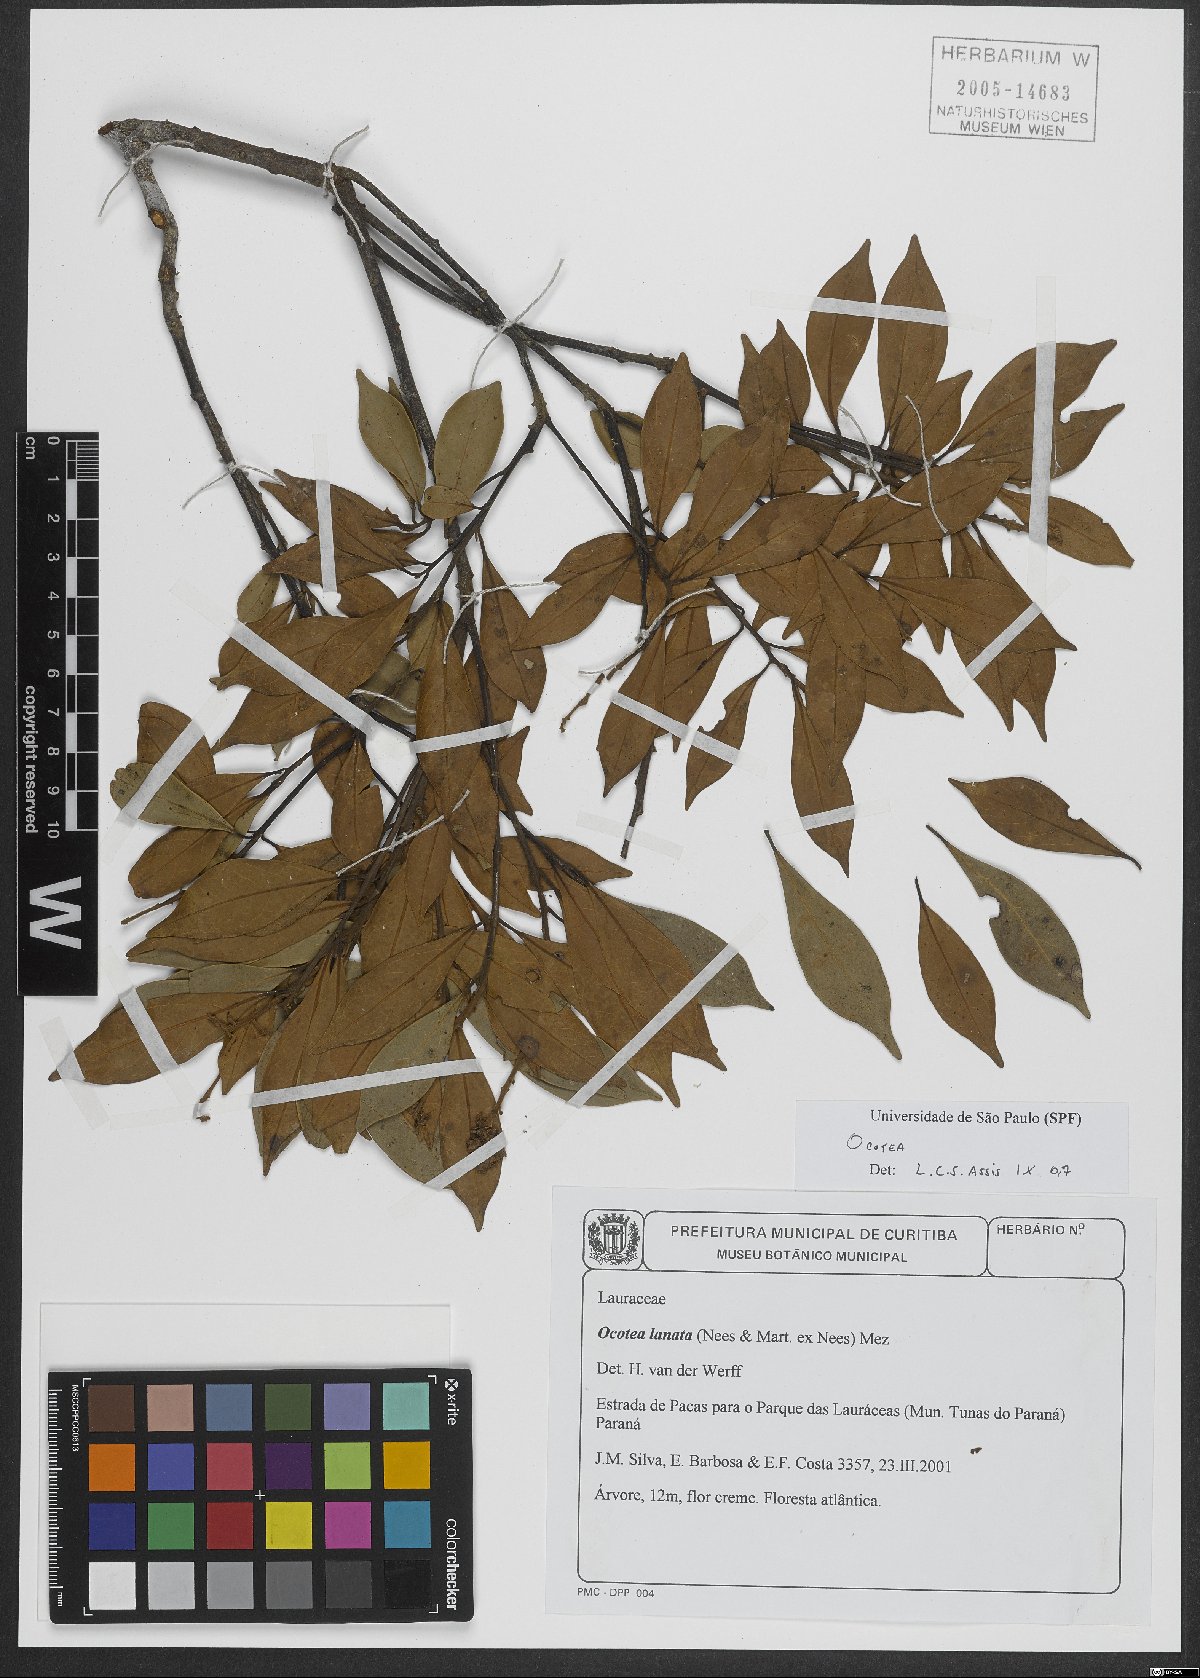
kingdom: Plantae
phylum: Tracheophyta
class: Magnoliopsida
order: Laurales
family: Lauraceae
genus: Ocotea
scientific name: Ocotea lanata
